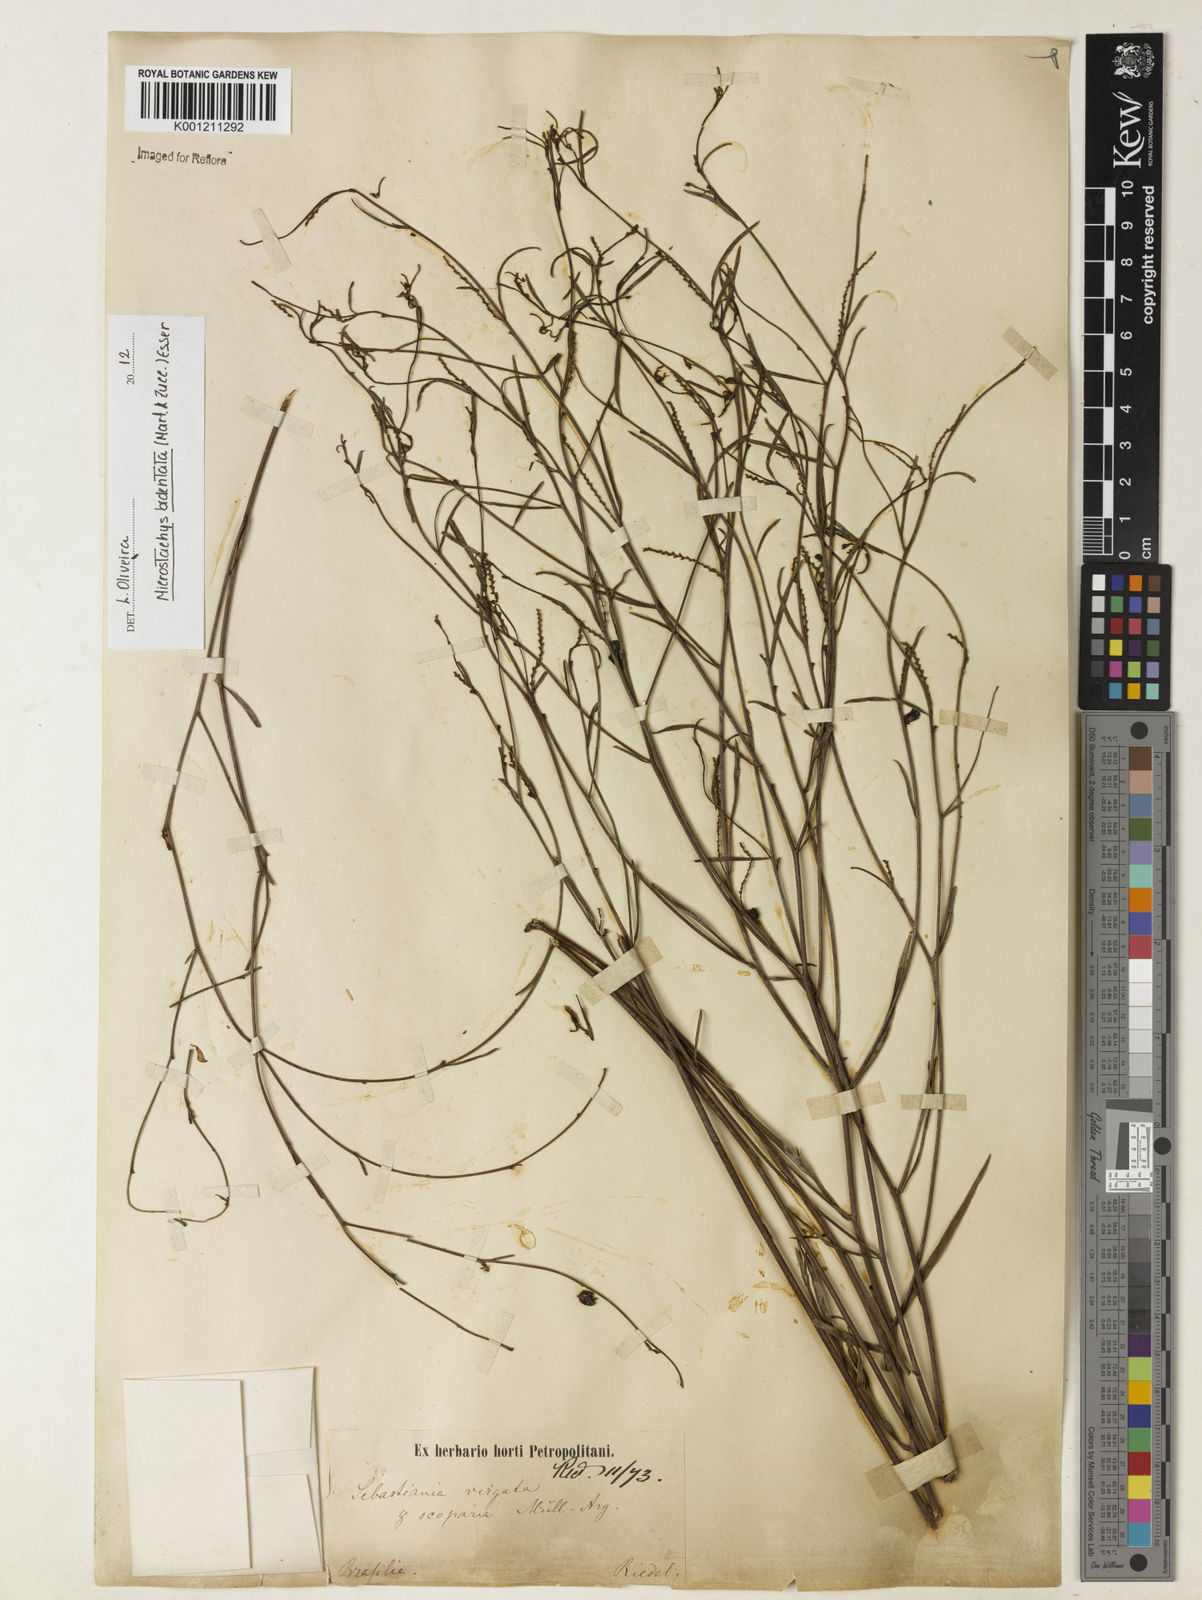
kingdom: Plantae
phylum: Tracheophyta
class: Magnoliopsida
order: Malpighiales
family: Euphorbiaceae
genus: Microstachys
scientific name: Microstachys bidentata
